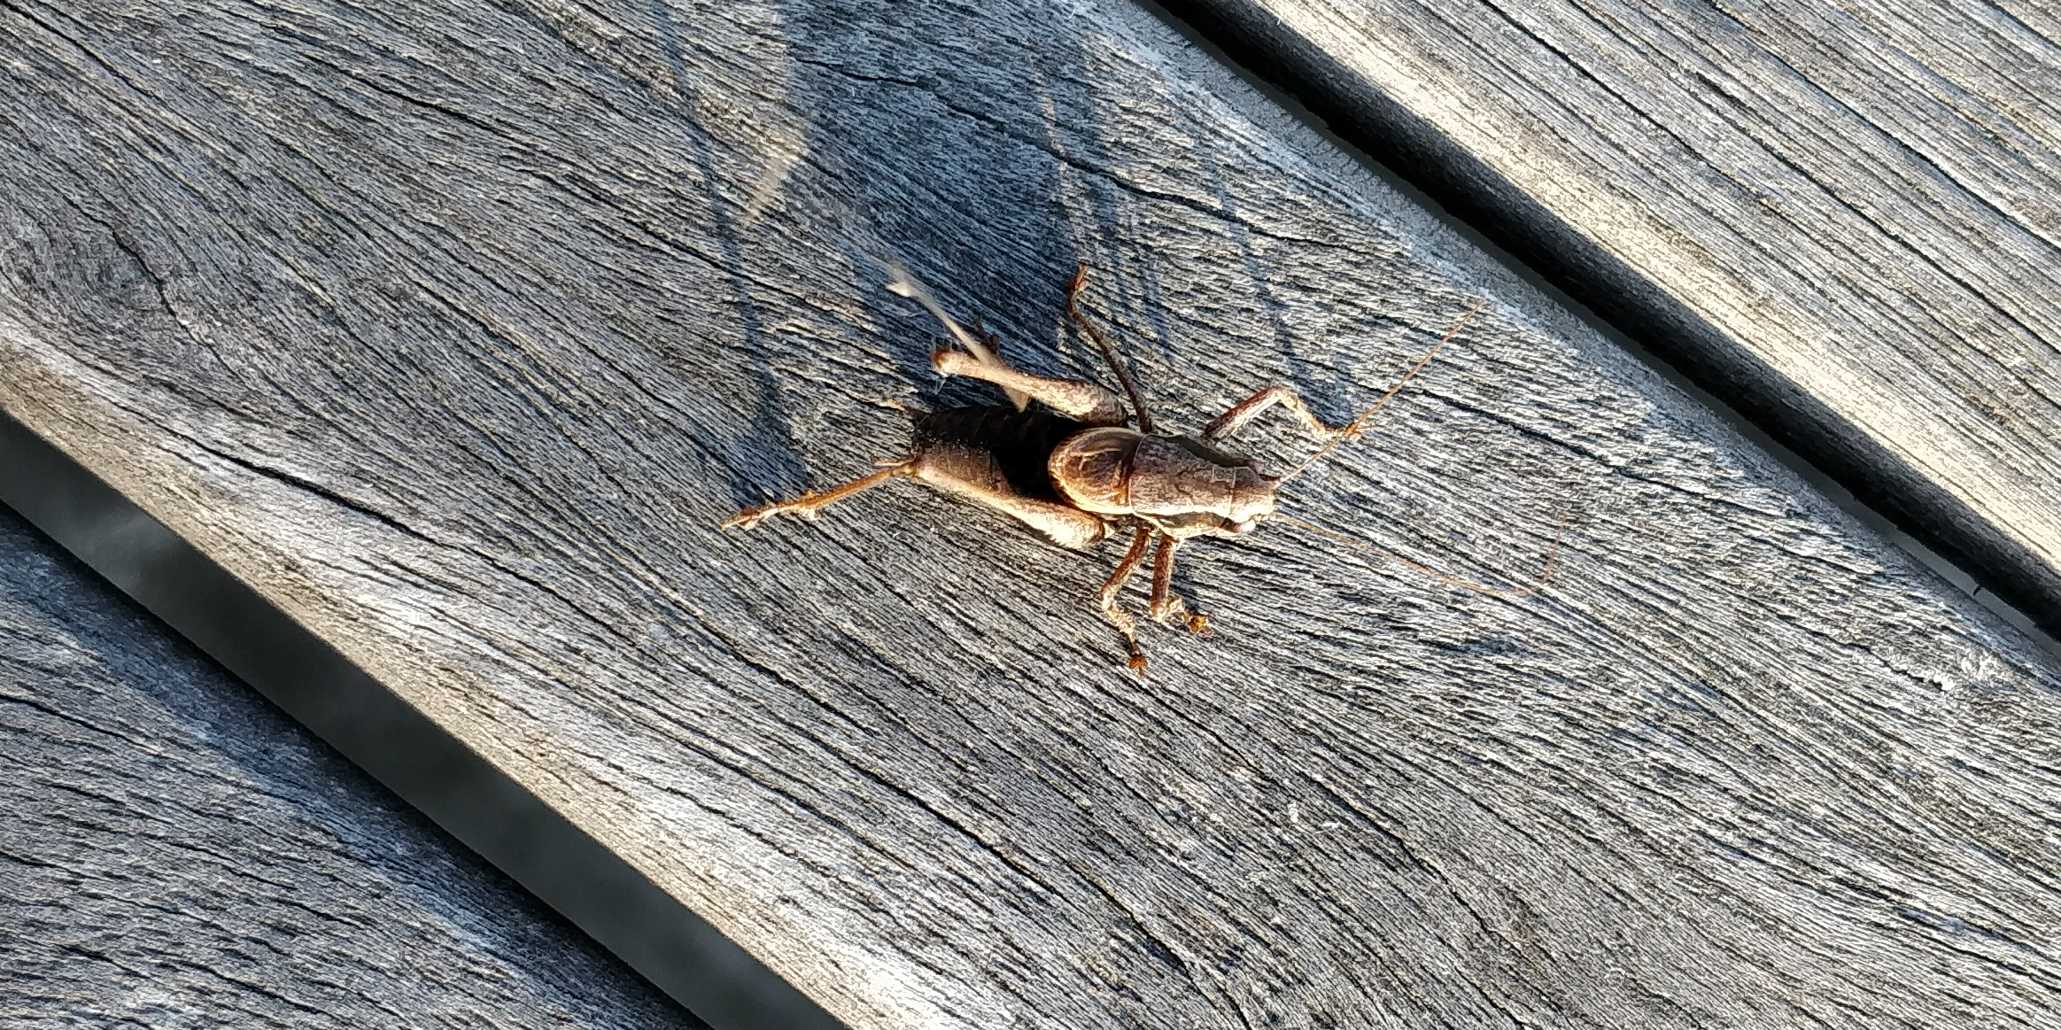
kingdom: Animalia
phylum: Arthropoda
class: Insecta
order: Orthoptera
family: Tettigoniidae
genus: Pholidoptera
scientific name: Pholidoptera griseoaptera
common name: Buskgræshoppe
